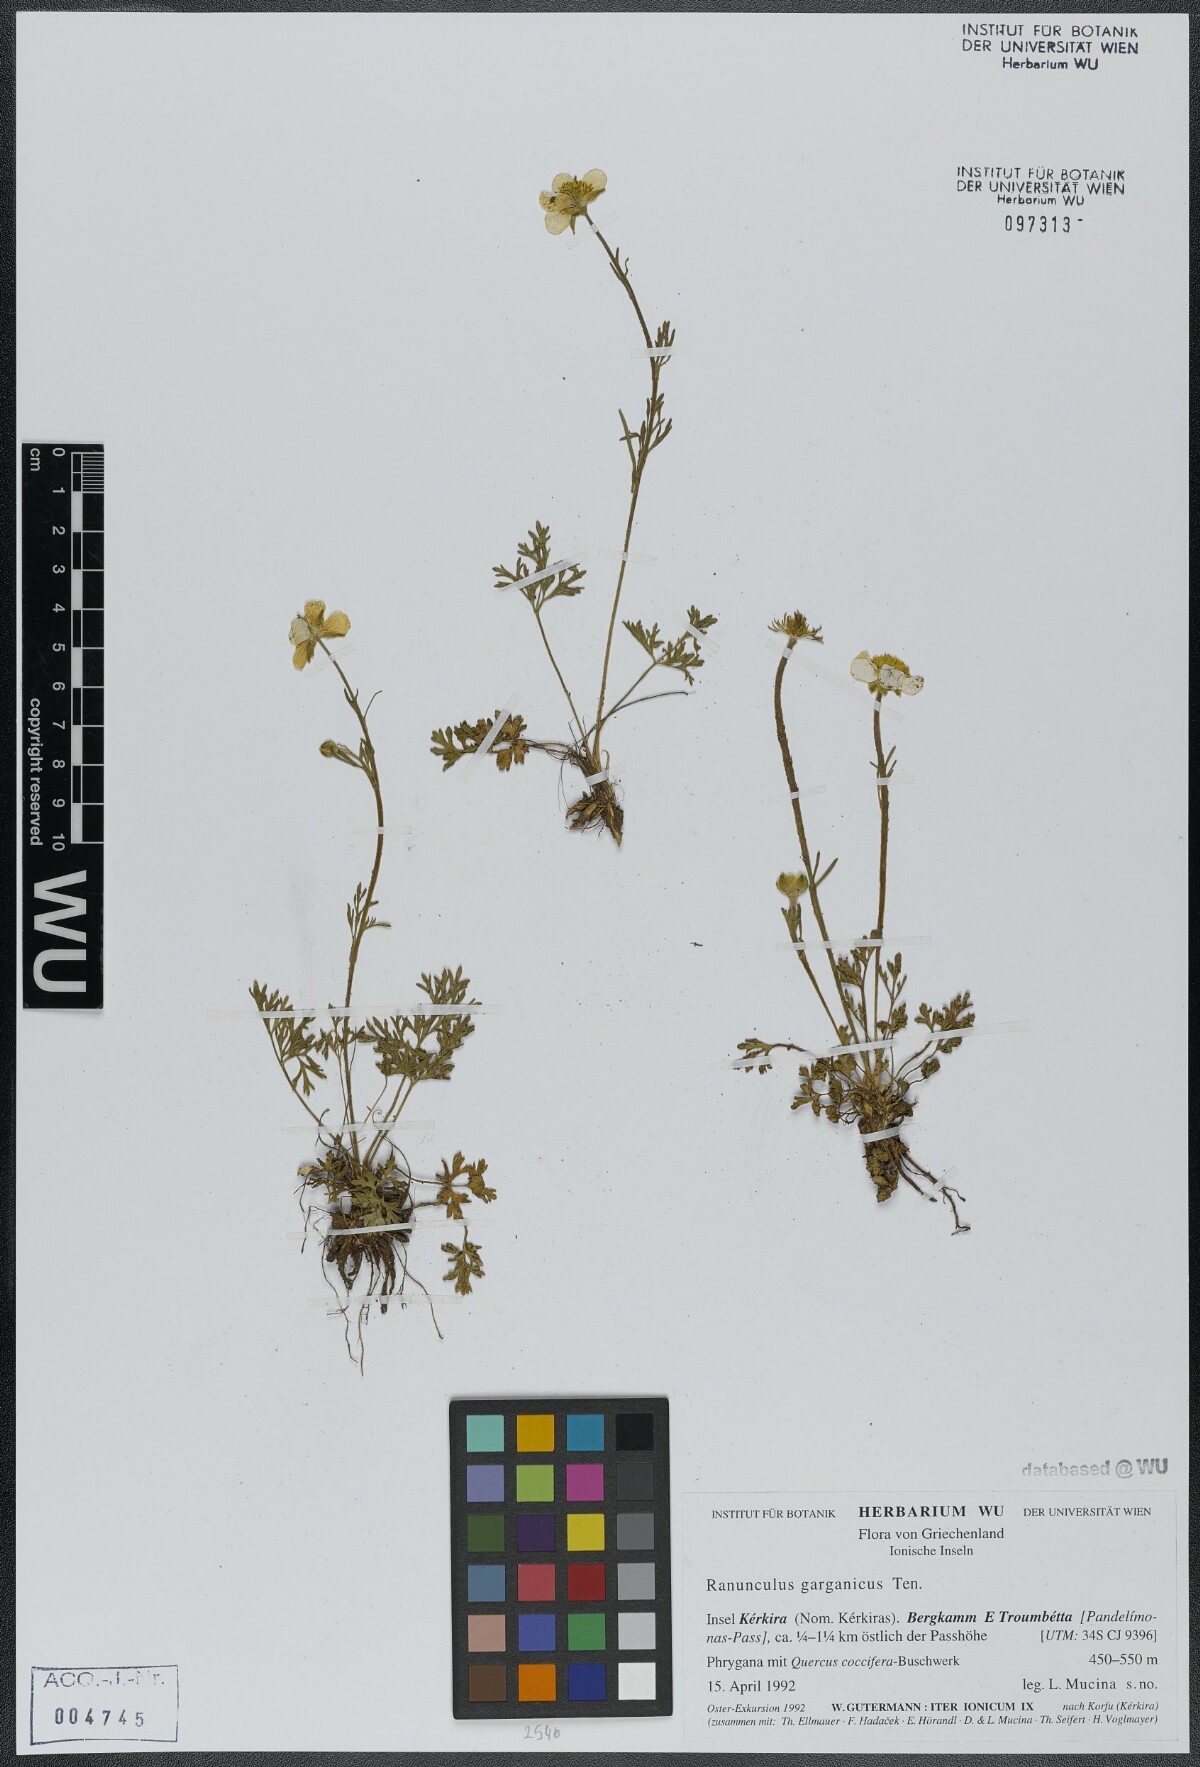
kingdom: Plantae
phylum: Tracheophyta
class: Magnoliopsida
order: Ranunculales
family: Ranunculaceae
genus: Ranunculus
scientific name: Ranunculus garganicus
